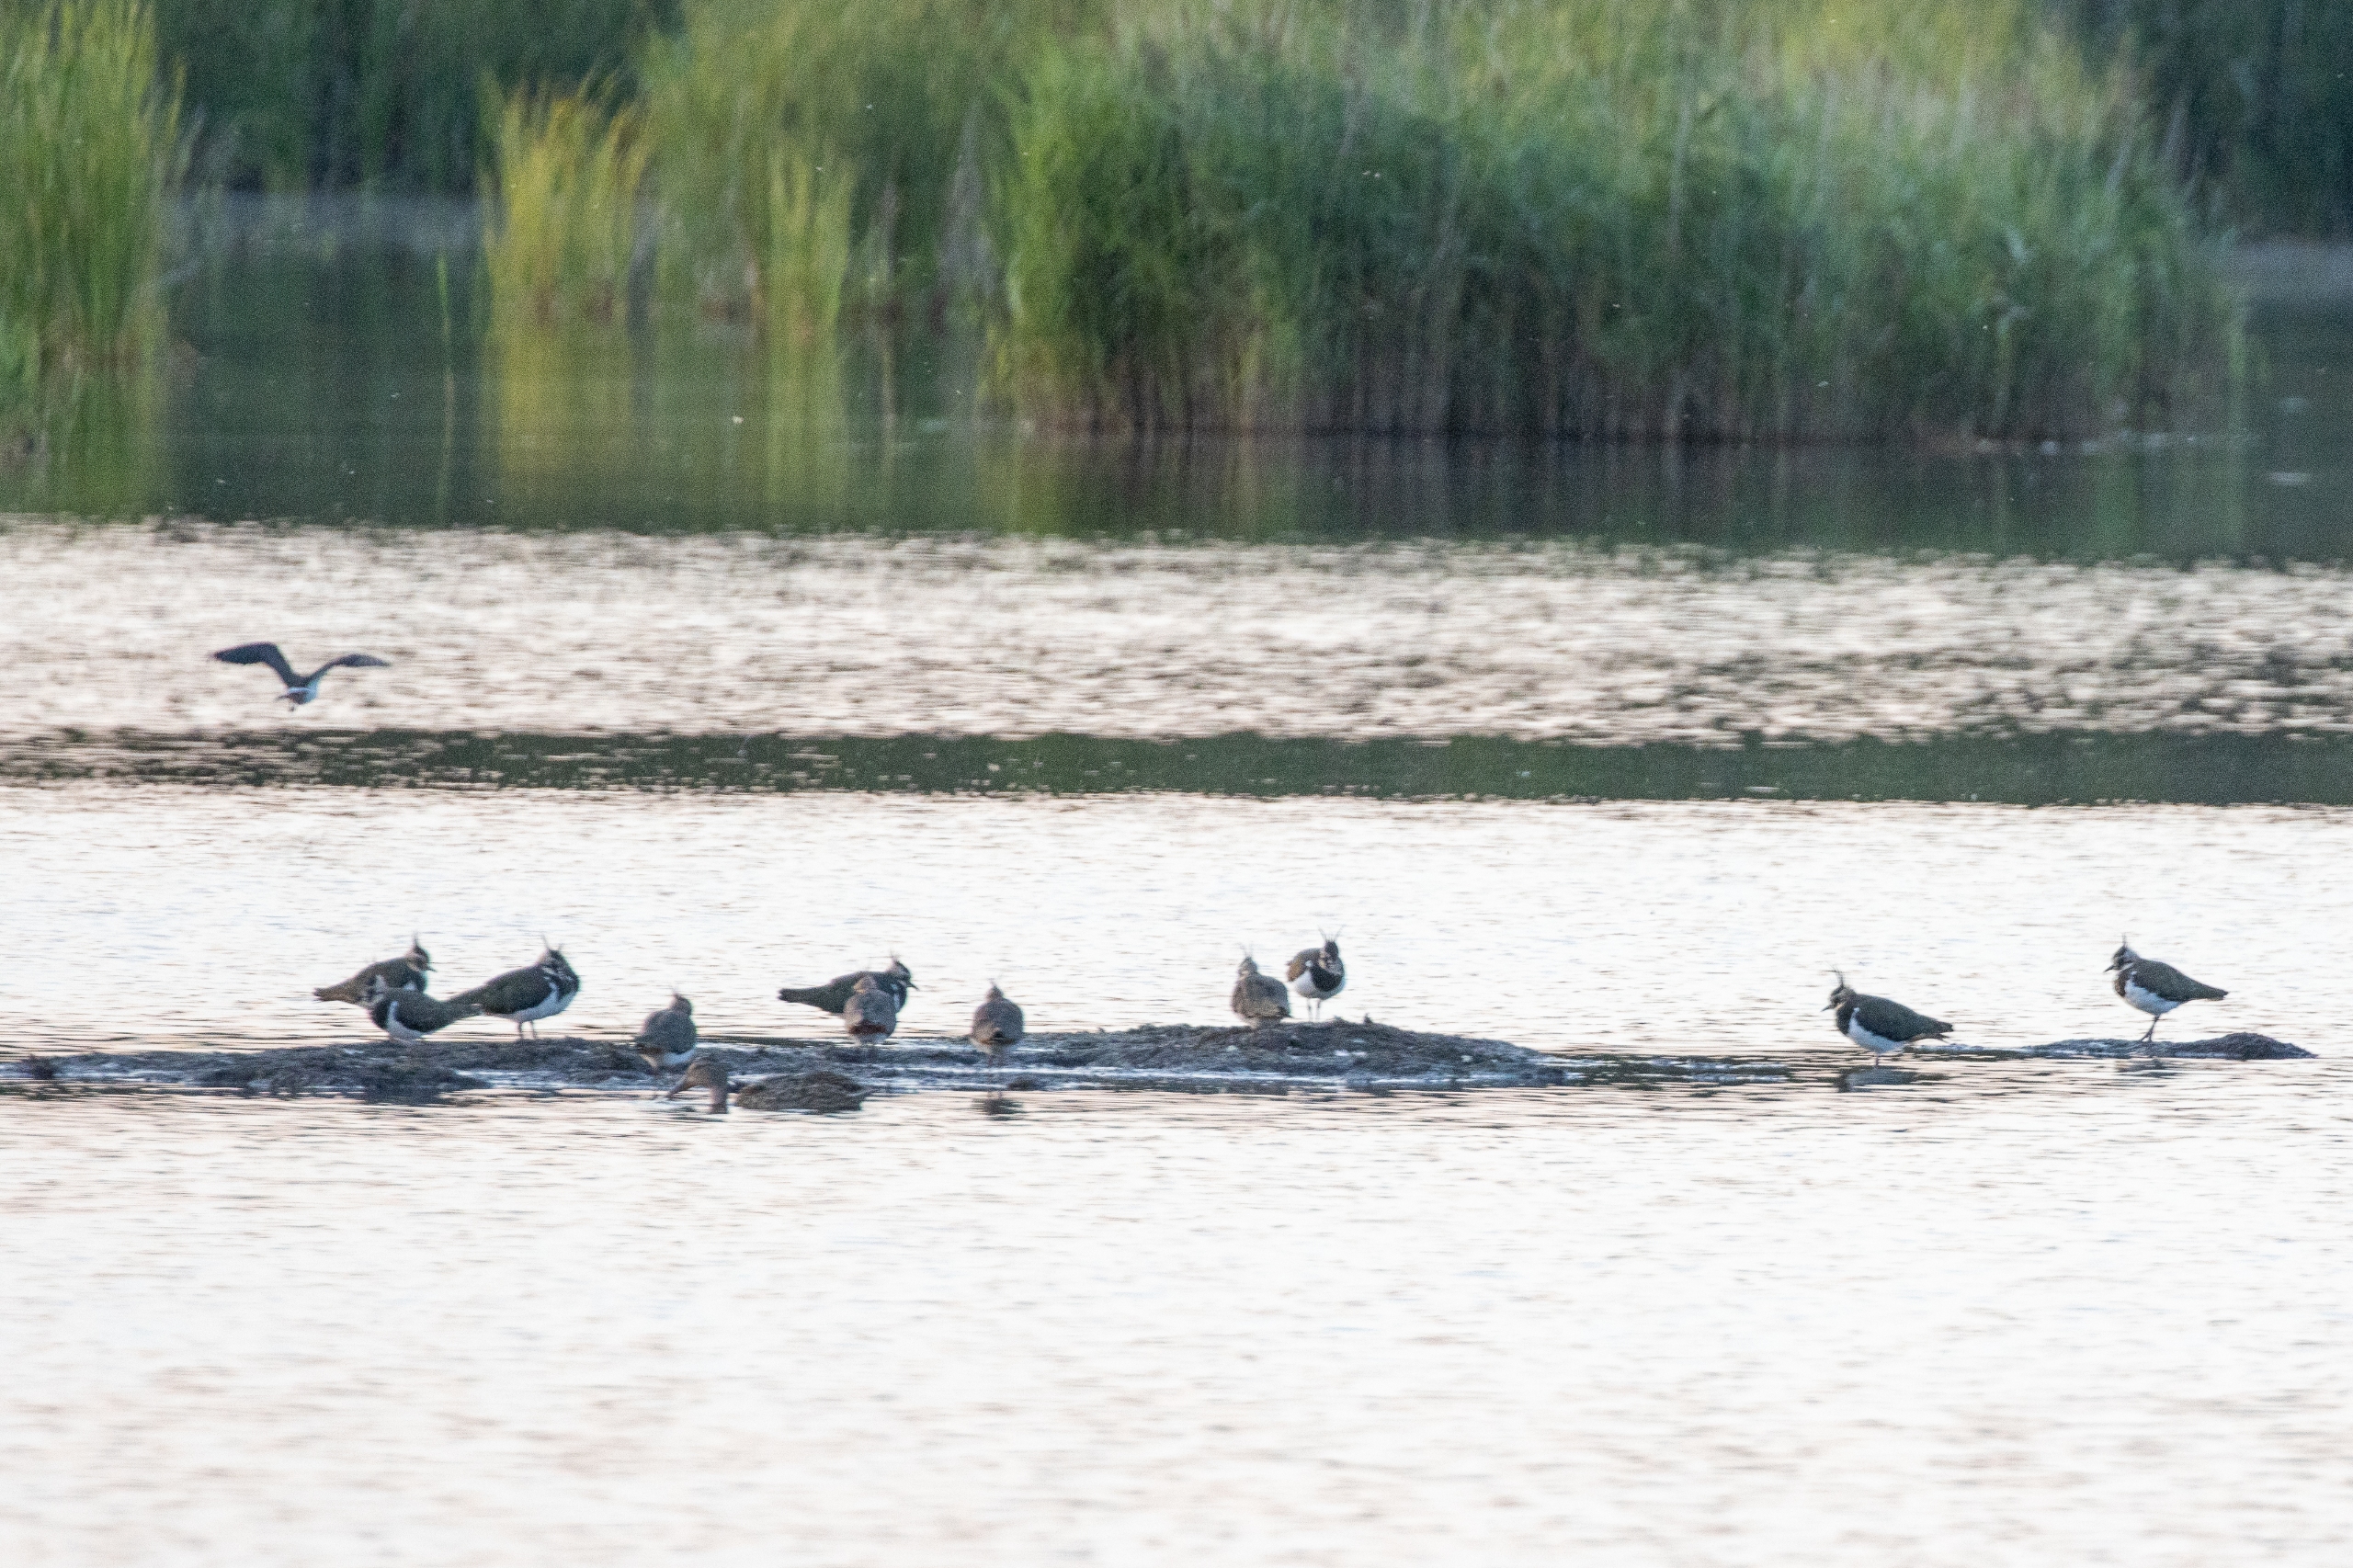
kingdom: Animalia
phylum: Chordata
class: Aves
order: Charadriiformes
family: Charadriidae
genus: Vanellus
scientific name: Vanellus vanellus
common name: Vibe
